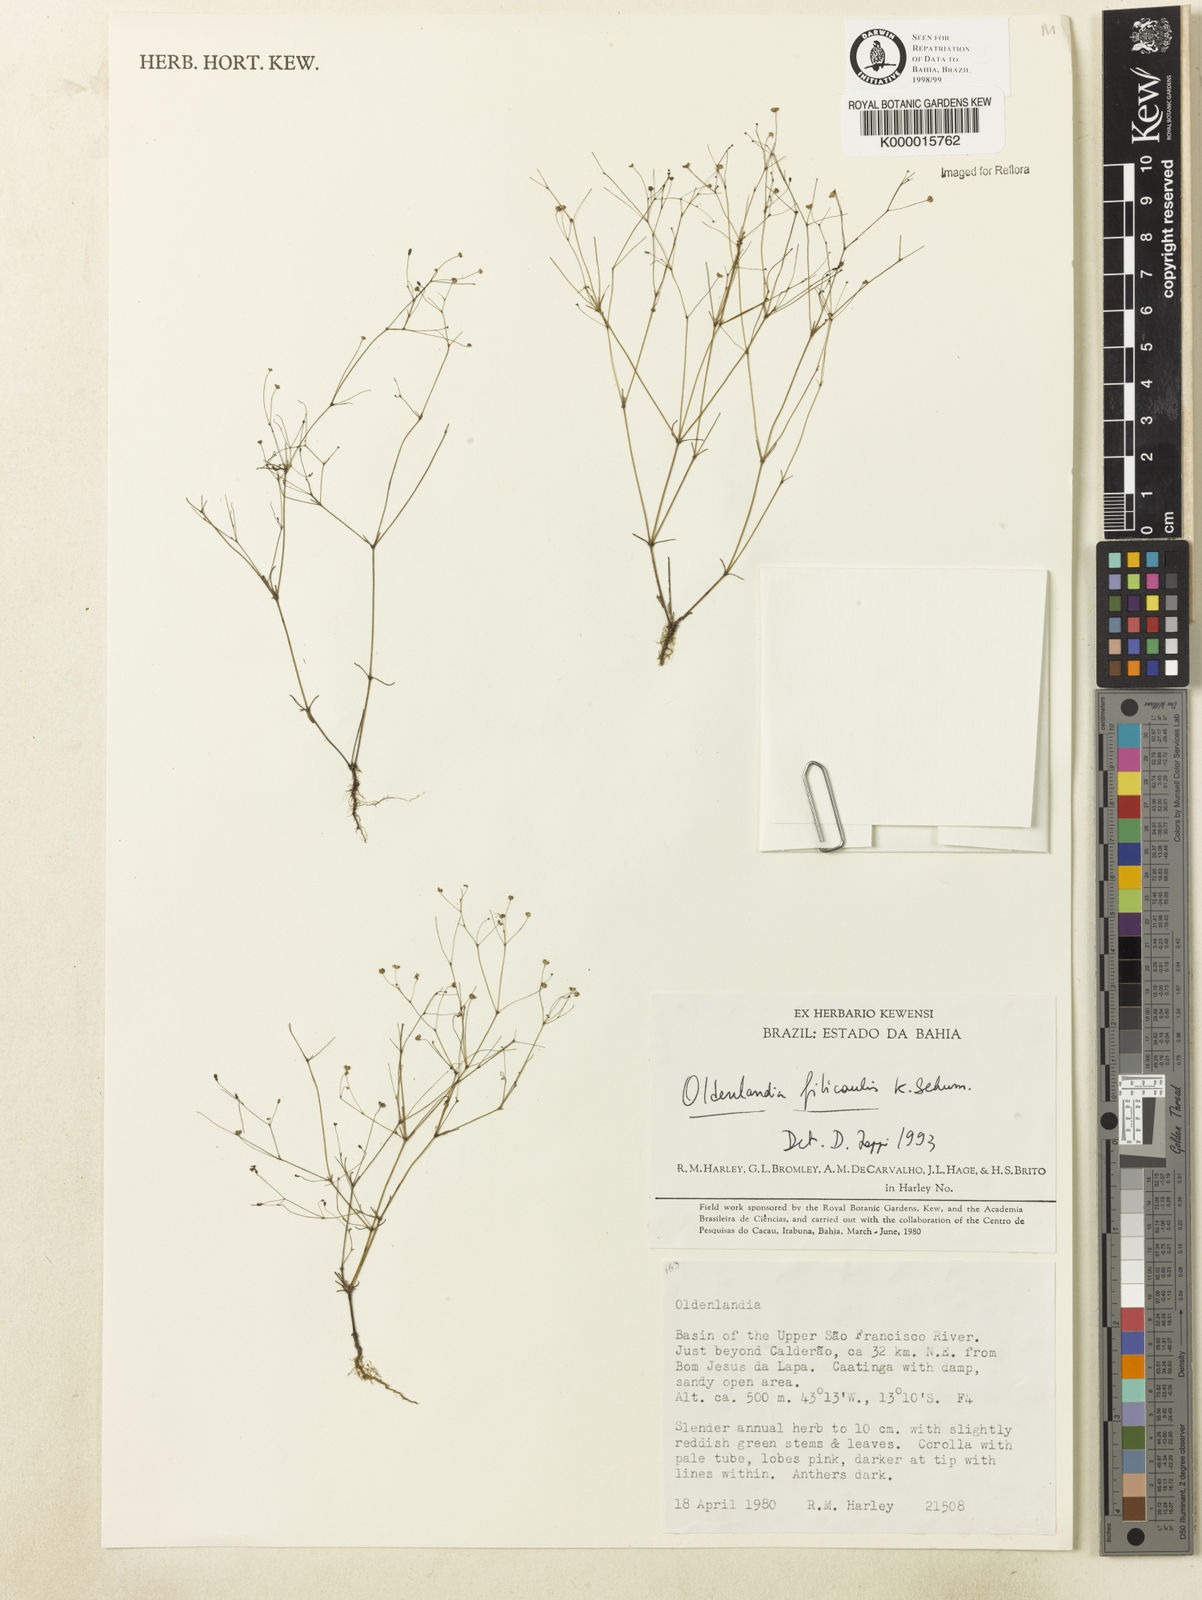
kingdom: Plantae
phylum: Tracheophyta
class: Magnoliopsida
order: Gentianales
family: Rubiaceae
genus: Oldenlandia
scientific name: Oldenlandia filicaulis
